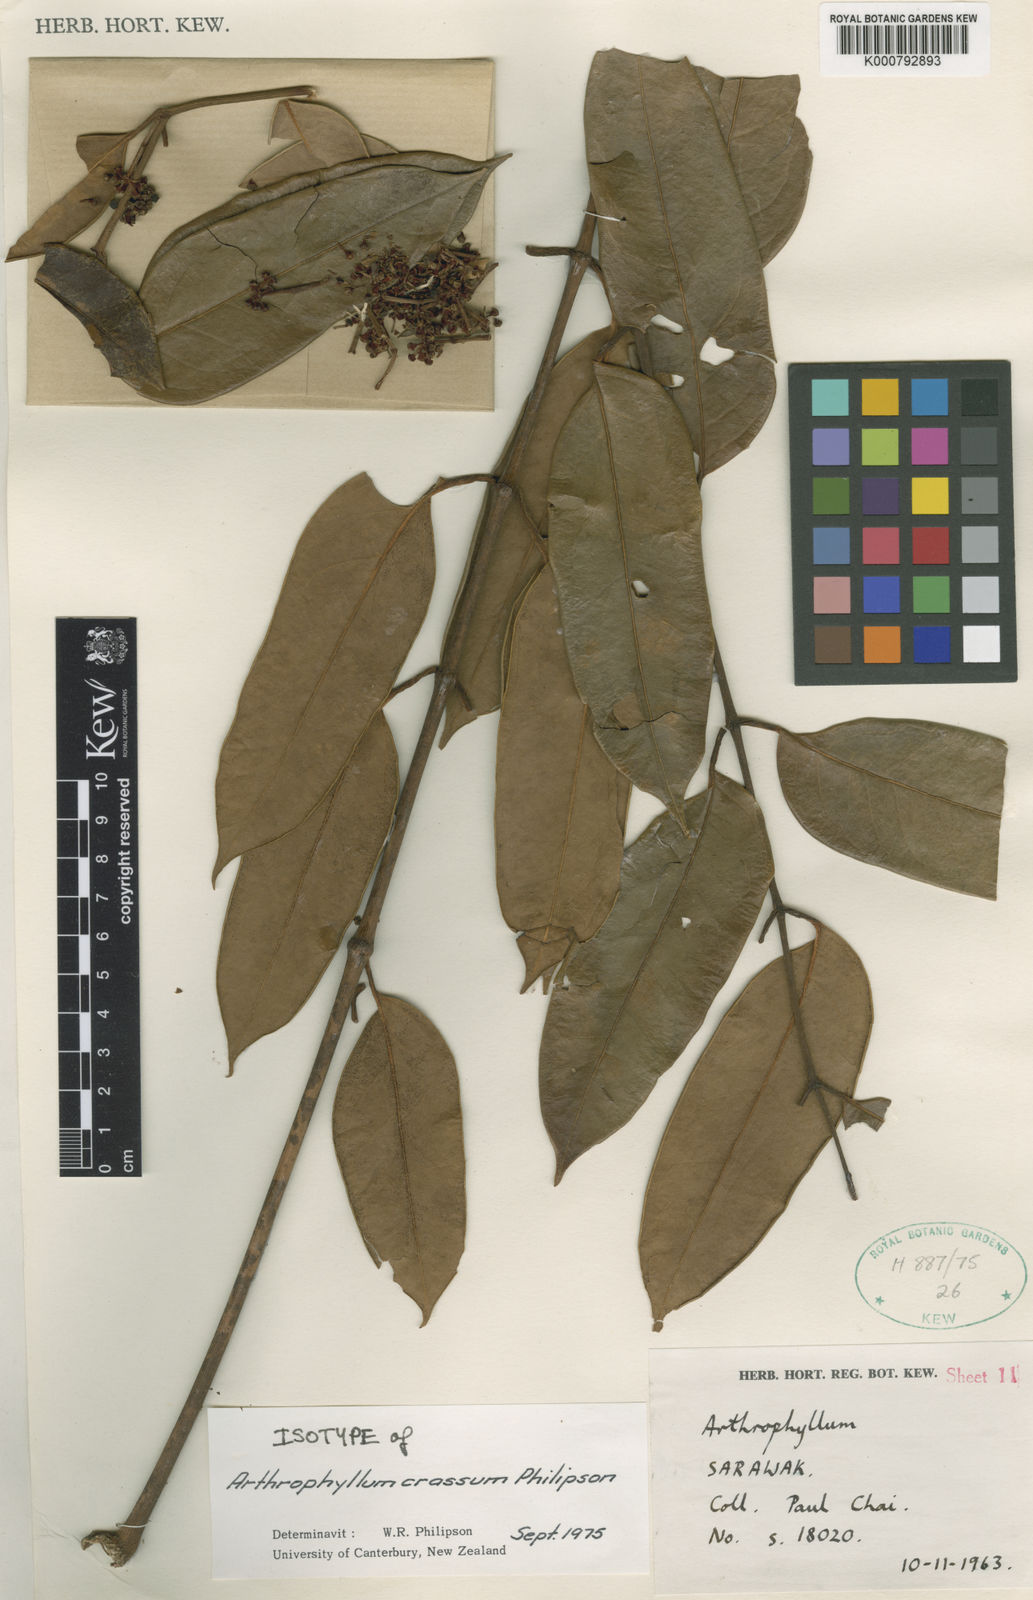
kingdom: Plantae
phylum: Tracheophyta
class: Magnoliopsida
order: Apiales
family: Araliaceae
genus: Polyscias
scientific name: Polyscias revoluta
